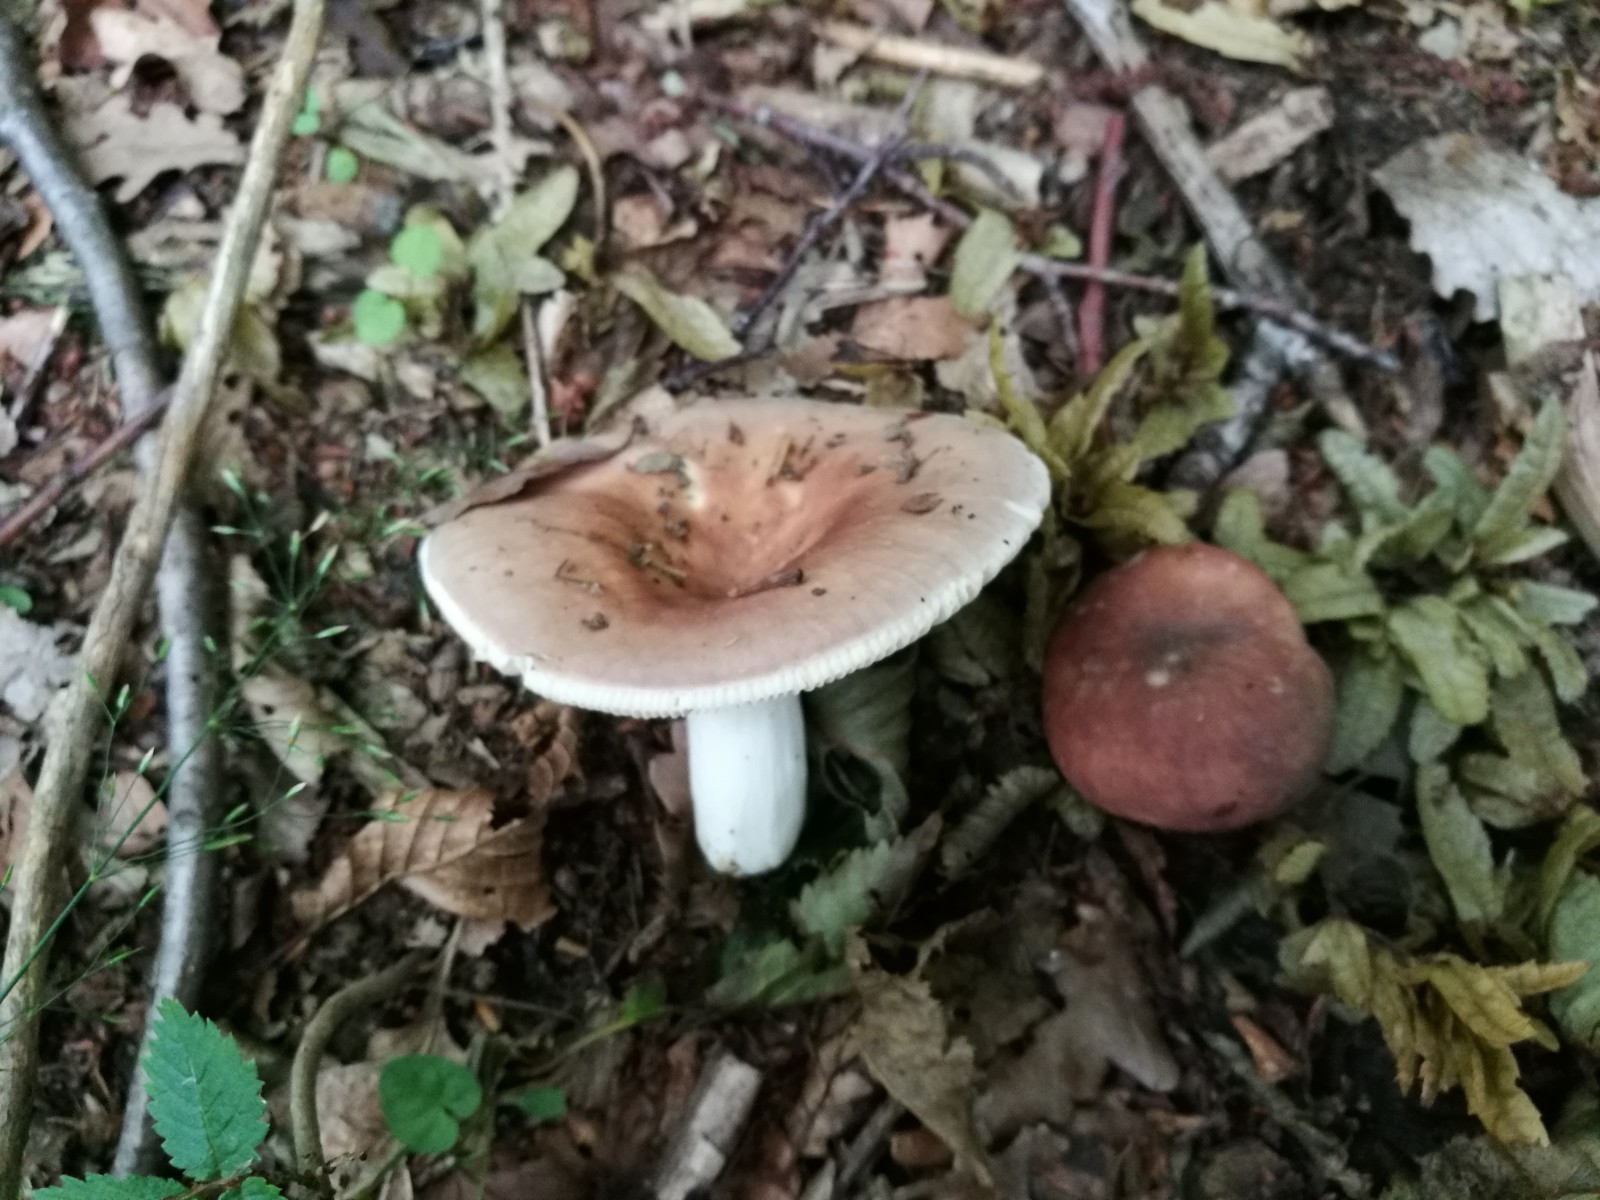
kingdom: Fungi
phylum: Basidiomycota
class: Agaricomycetes
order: Russulales
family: Russulaceae
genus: Russula
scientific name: Russula vesca
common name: spiselig skørhat
